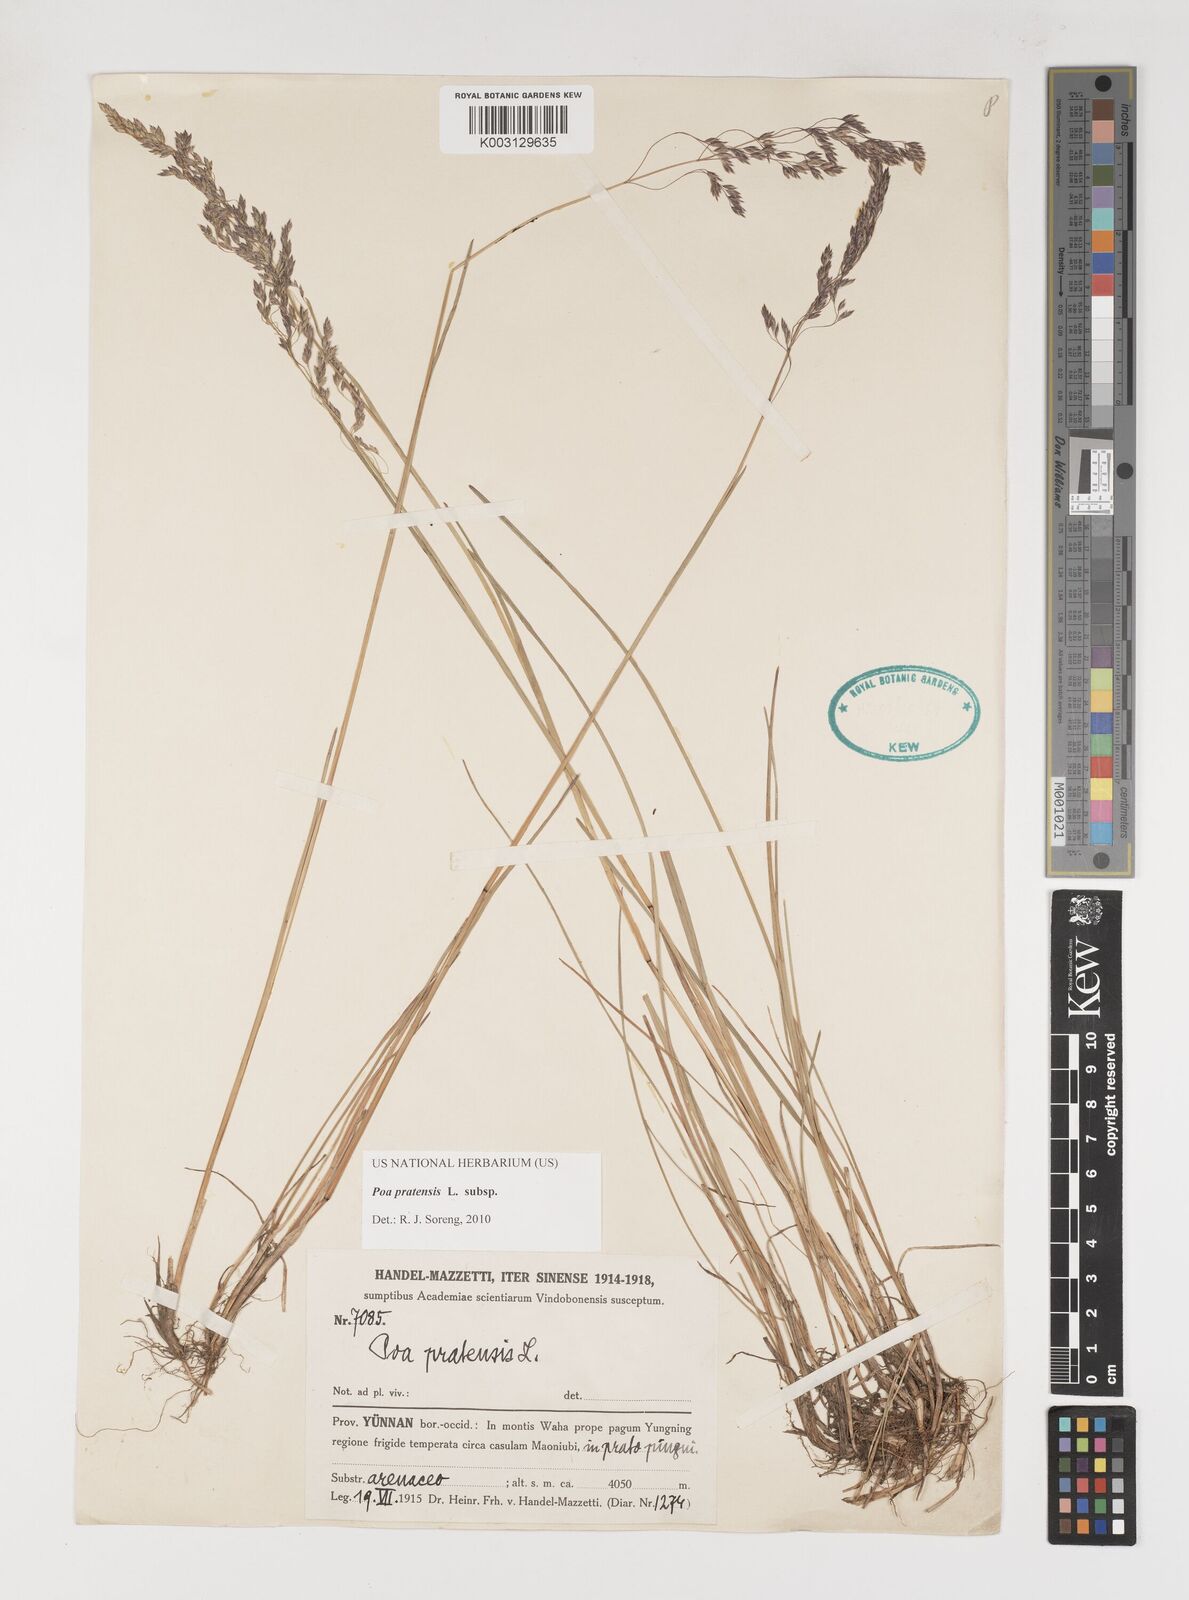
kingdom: Plantae
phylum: Tracheophyta
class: Liliopsida
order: Poales
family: Poaceae
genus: Poa
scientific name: Poa angustifolia
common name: Narrow-leaved meadow-grass
